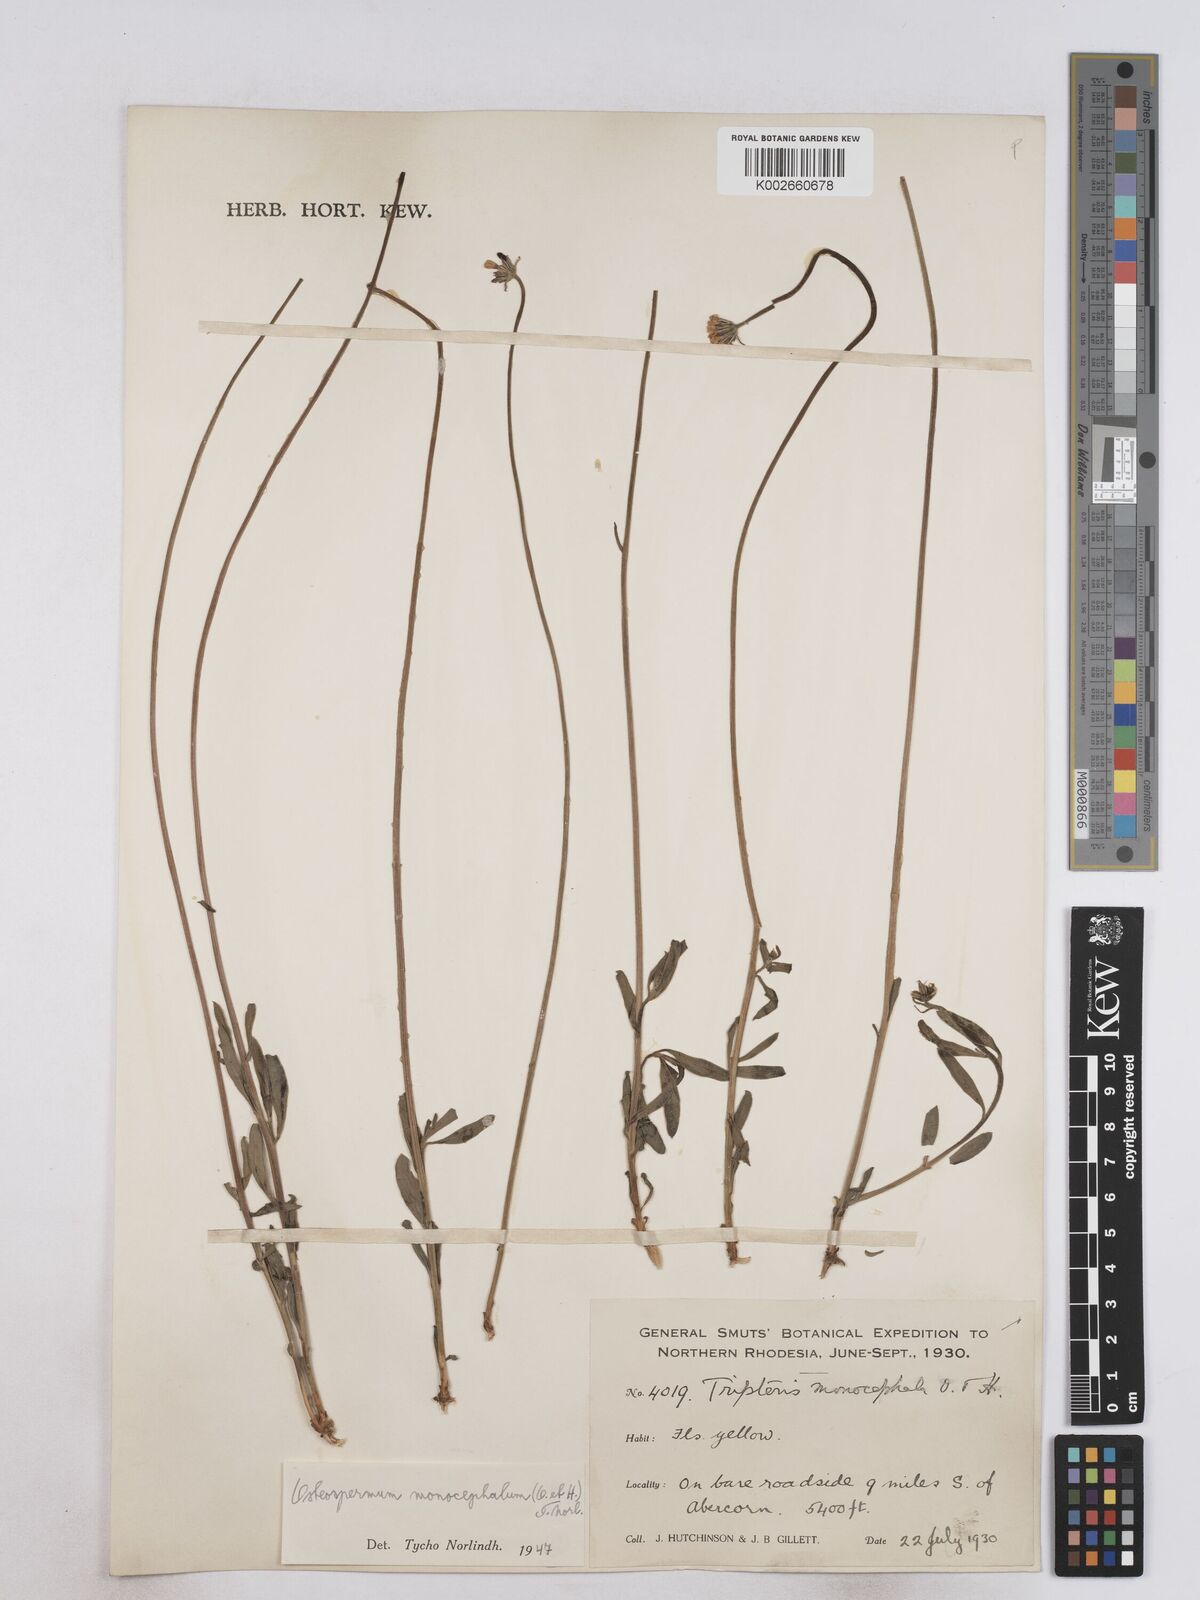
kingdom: Plantae
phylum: Tracheophyta
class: Magnoliopsida
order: Asterales
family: Asteraceae
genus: Osteospermum
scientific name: Osteospermum monocephalum
